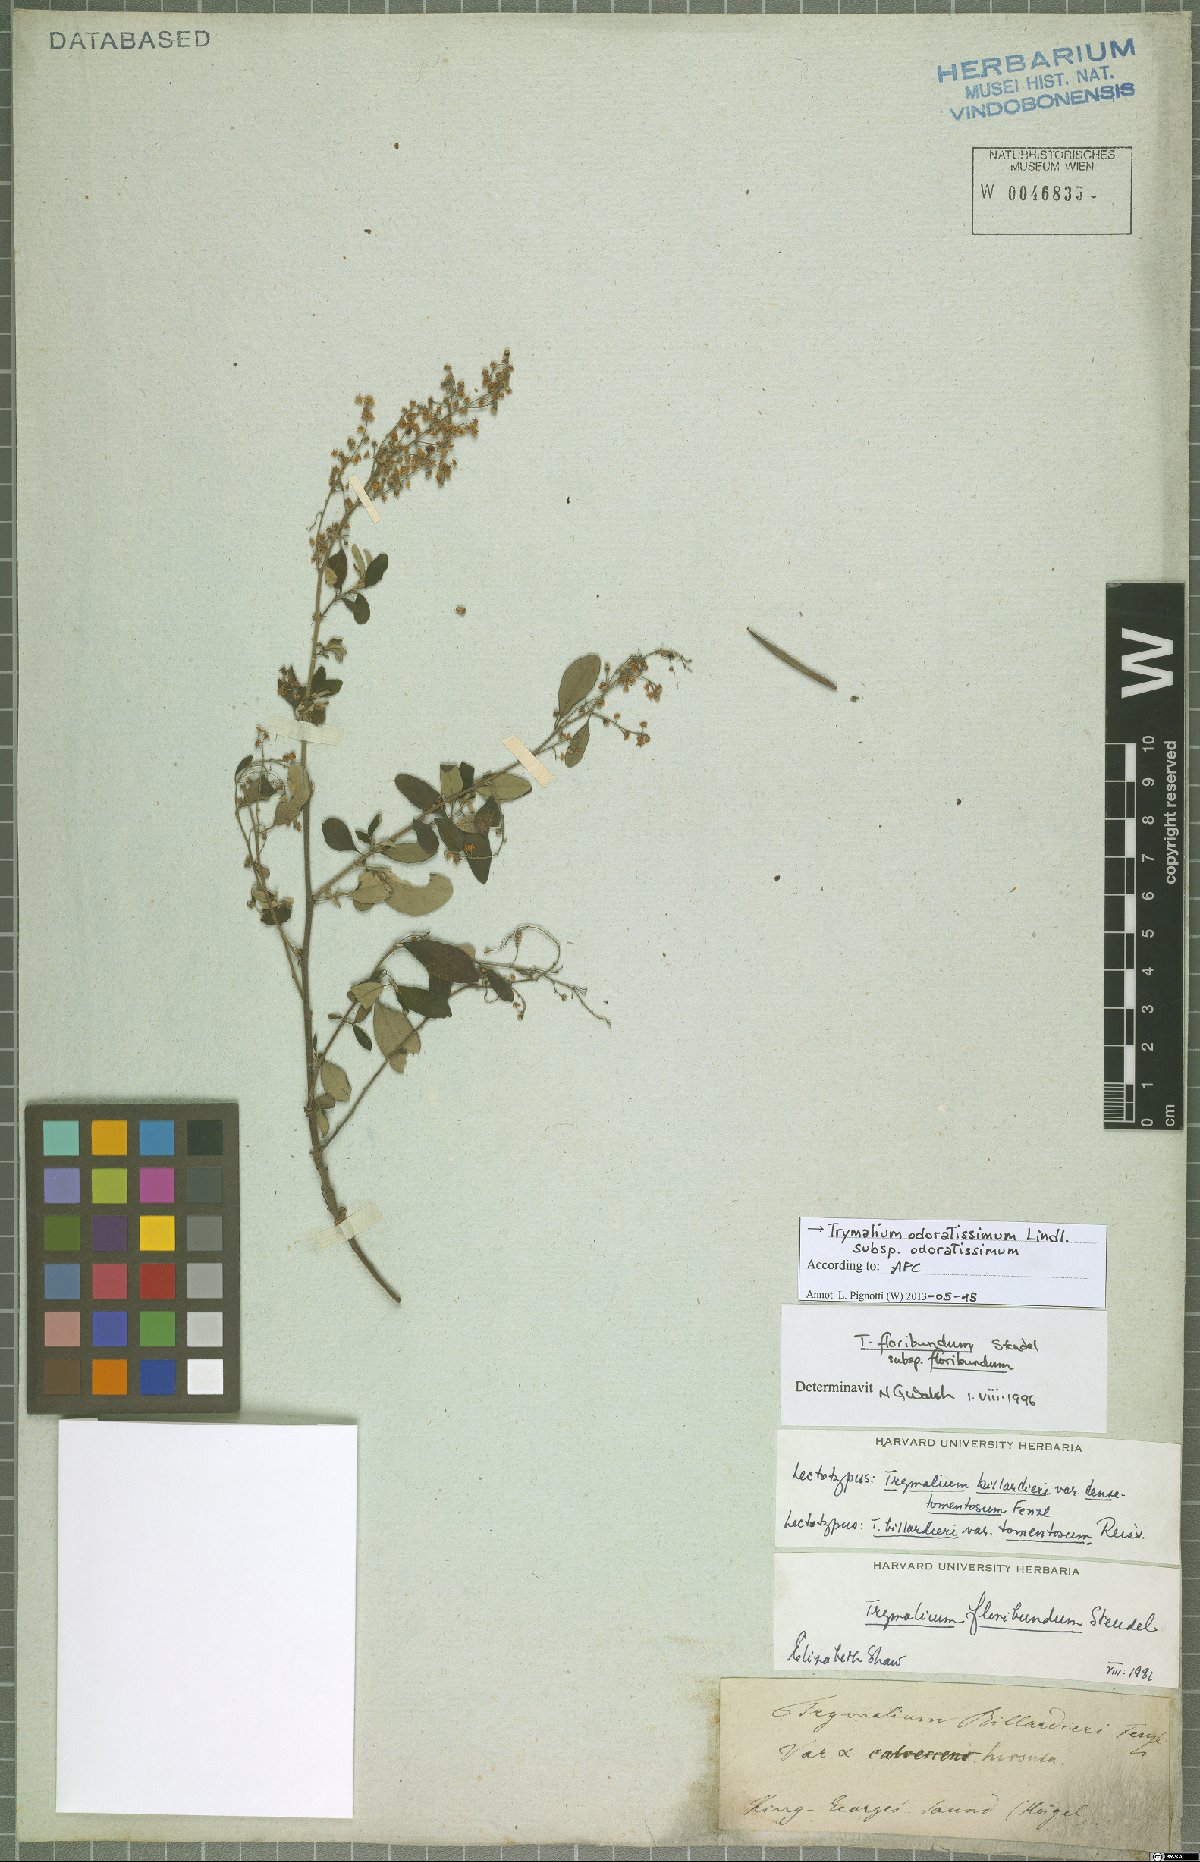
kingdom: Plantae
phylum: Tracheophyta
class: Magnoliopsida
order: Rosales
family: Rhamnaceae
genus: Trymalium
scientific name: Trymalium odoratissimum
